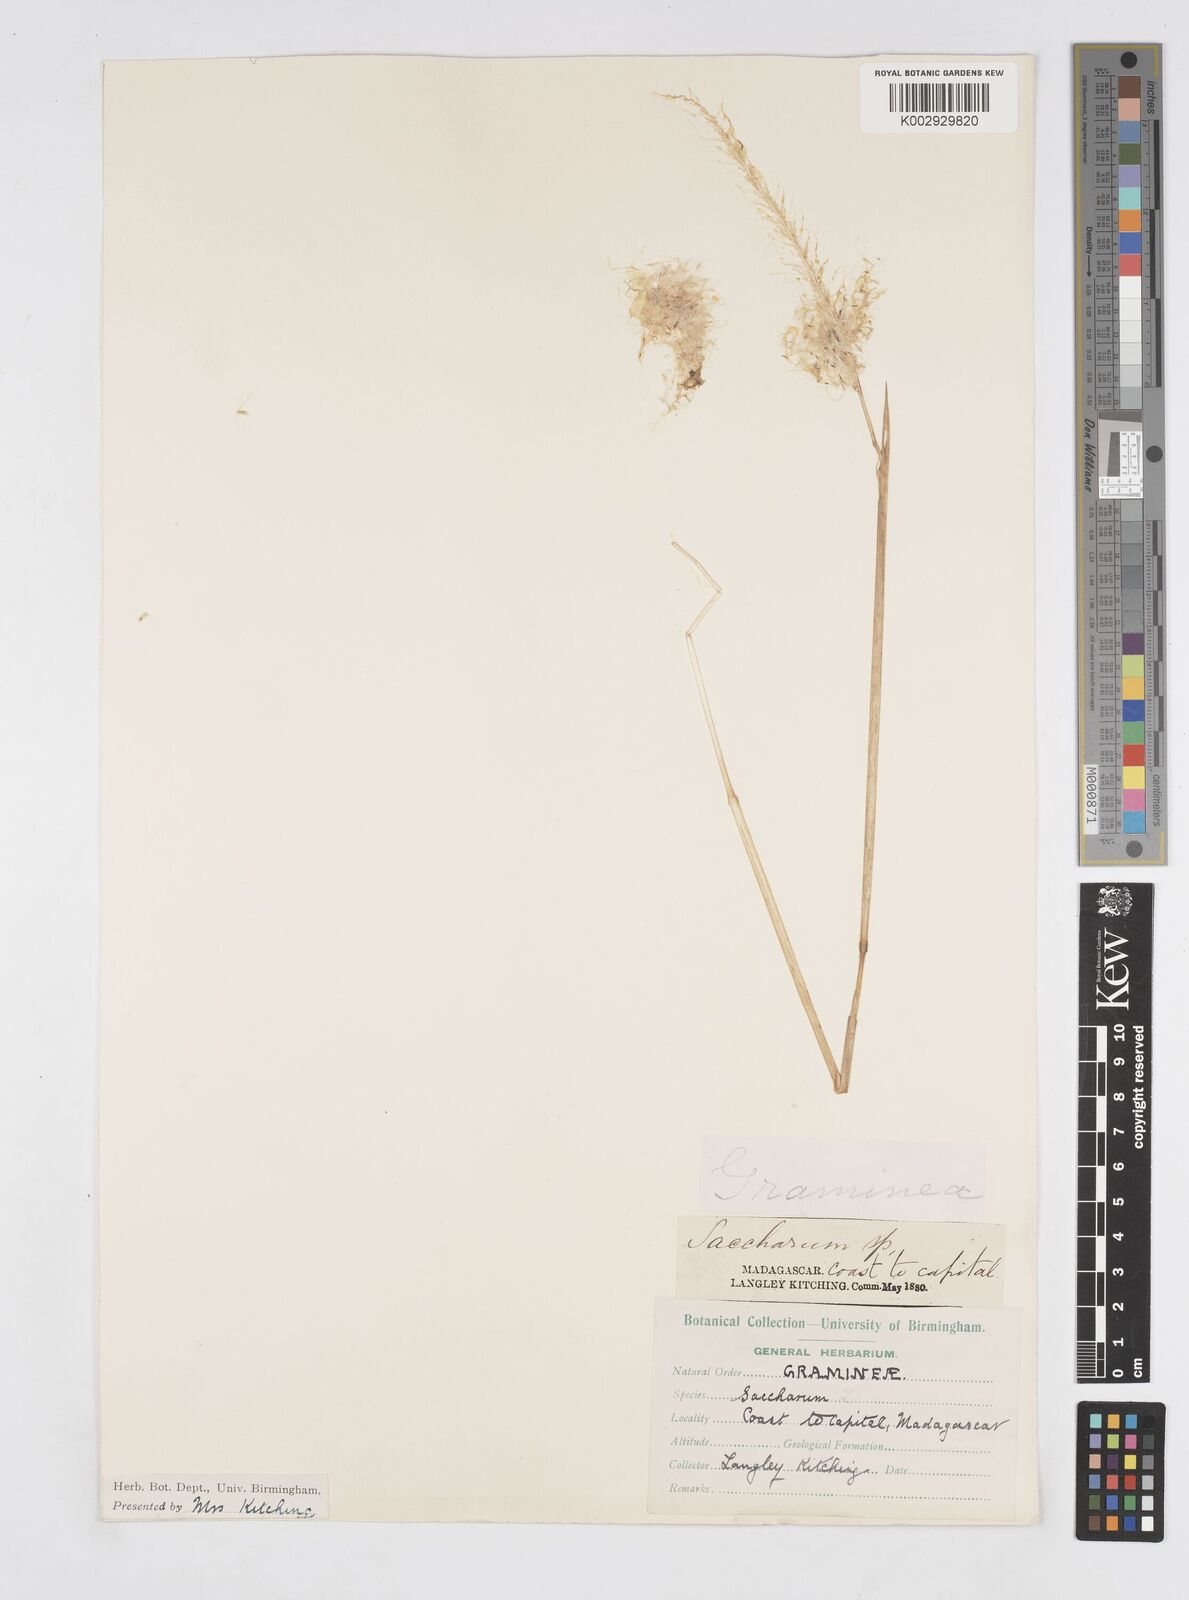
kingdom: Plantae
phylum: Tracheophyta
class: Liliopsida
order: Poales
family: Poaceae
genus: Saccharum
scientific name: Saccharum officinarum
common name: Sugarcane
